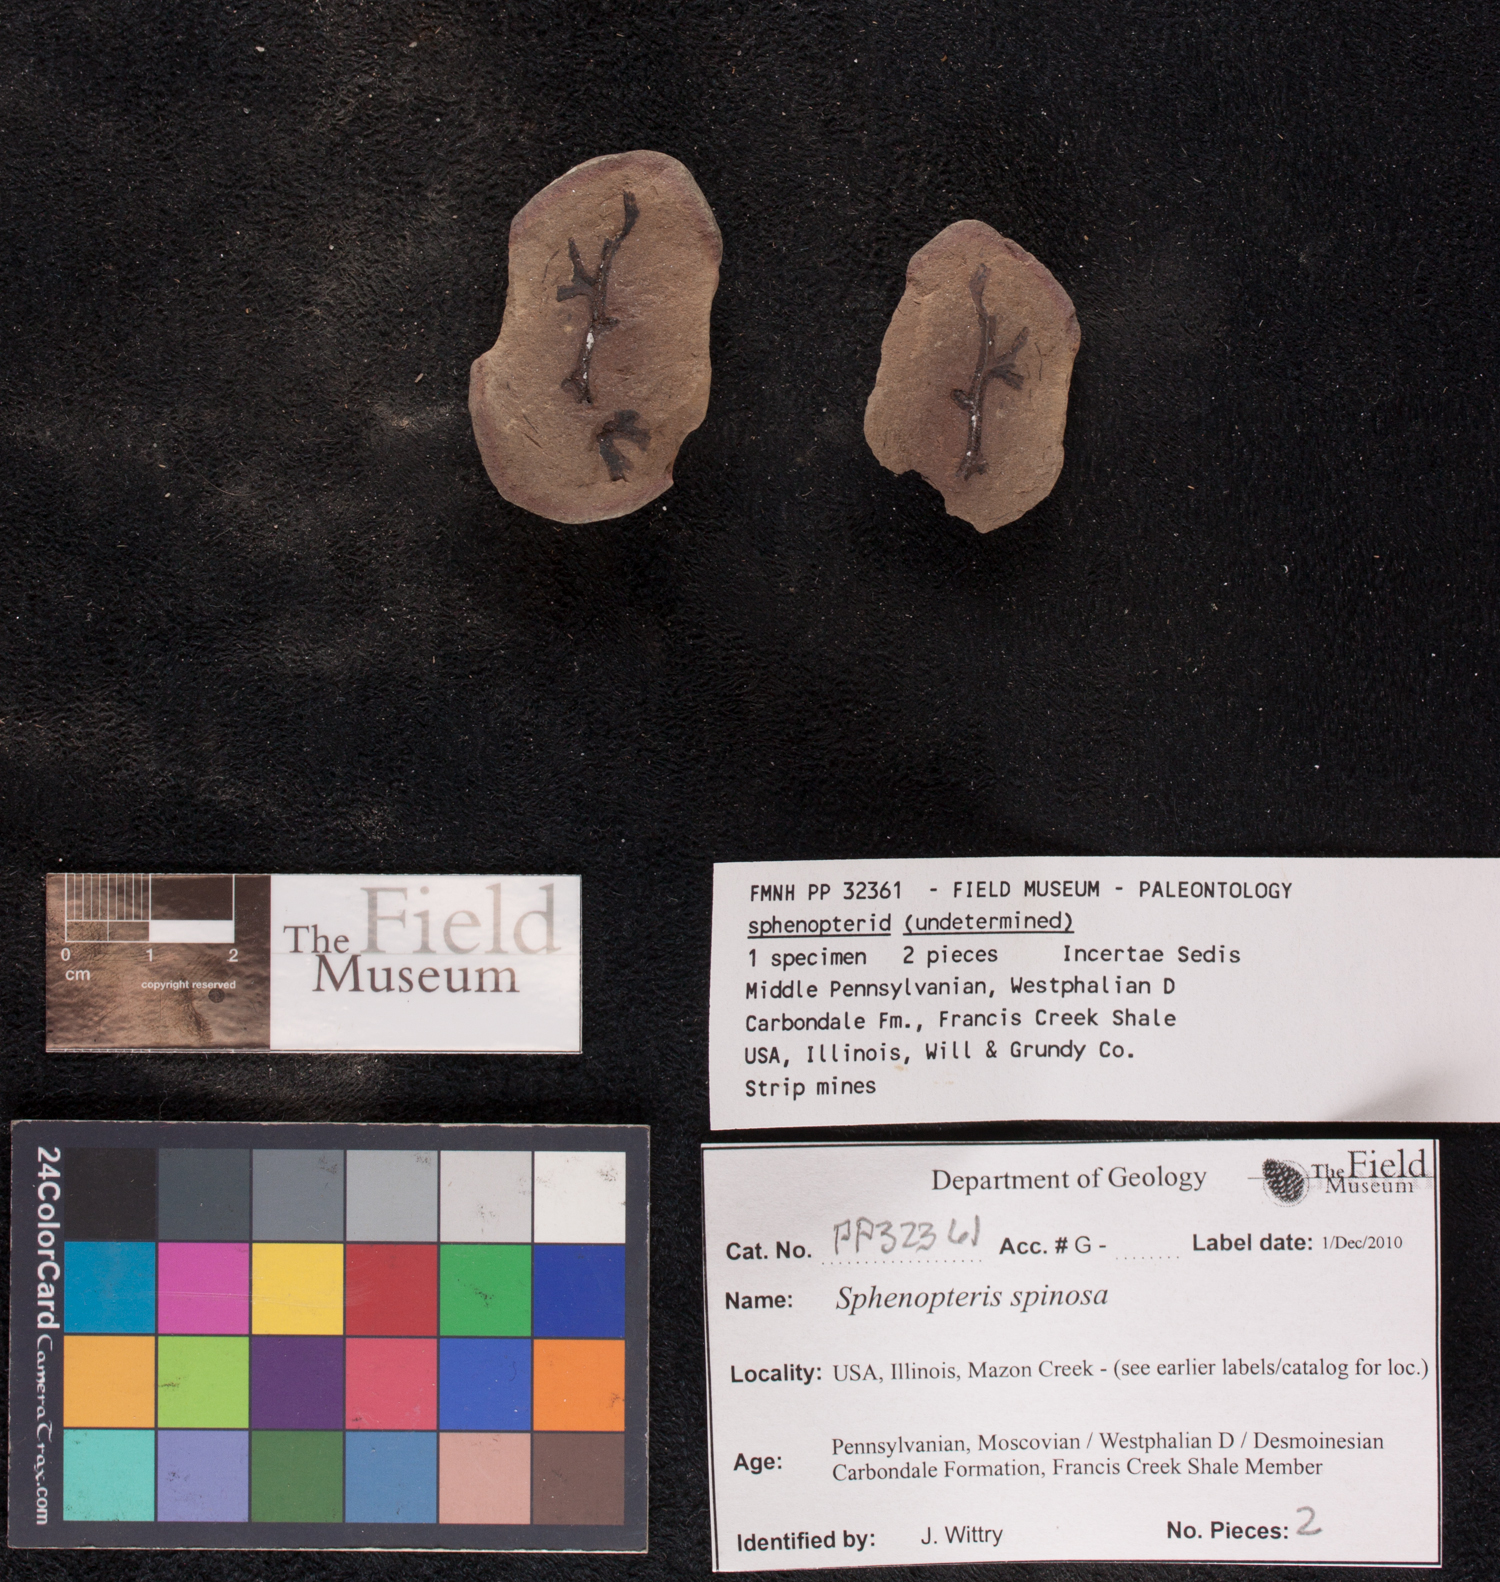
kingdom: Plantae
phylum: Tracheophyta
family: Lyginopteridaceae
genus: Sphenopteris
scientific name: Sphenopteris
